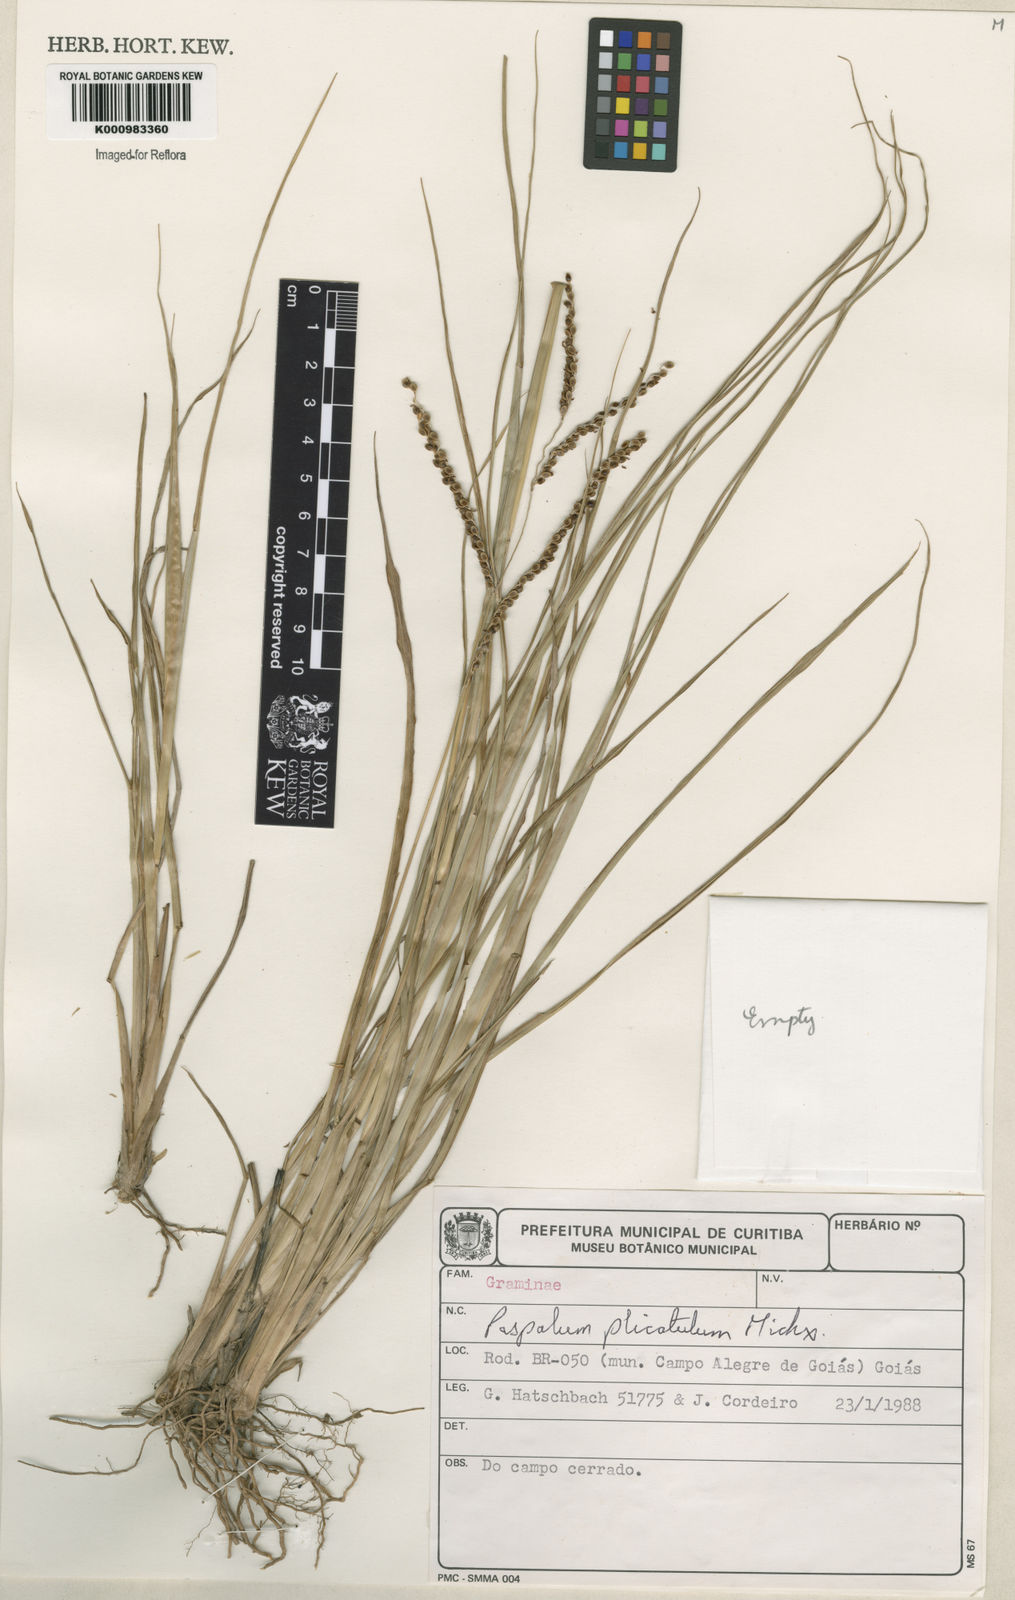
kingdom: Plantae
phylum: Tracheophyta
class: Liliopsida
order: Poales
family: Poaceae
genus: Paspalum
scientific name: Paspalum plicatulum
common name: Top paspalum
